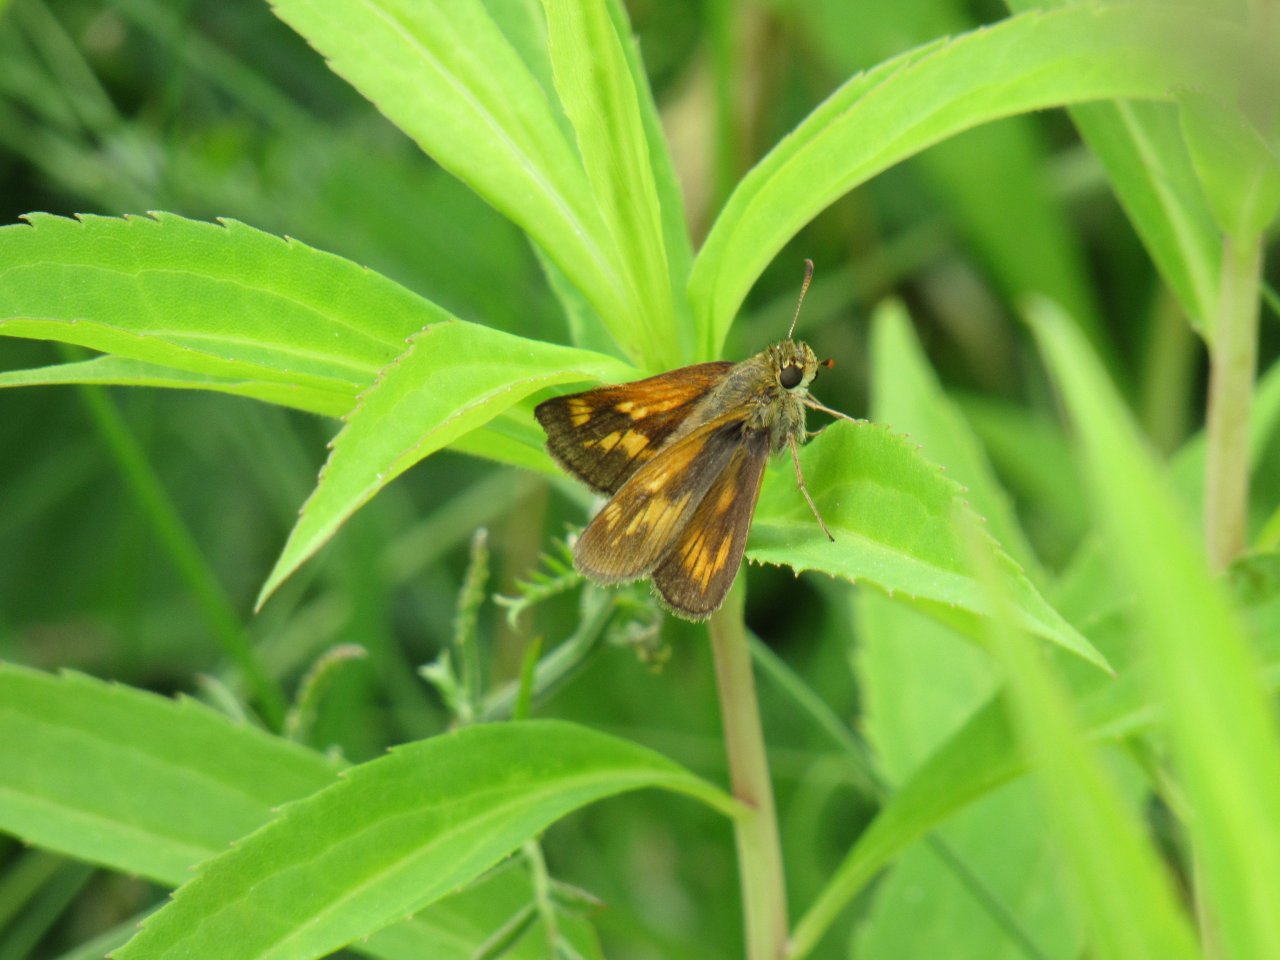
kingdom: Animalia
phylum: Arthropoda
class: Insecta
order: Lepidoptera
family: Hesperiidae
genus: Polites
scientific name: Polites
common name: Long Dash Skipper
